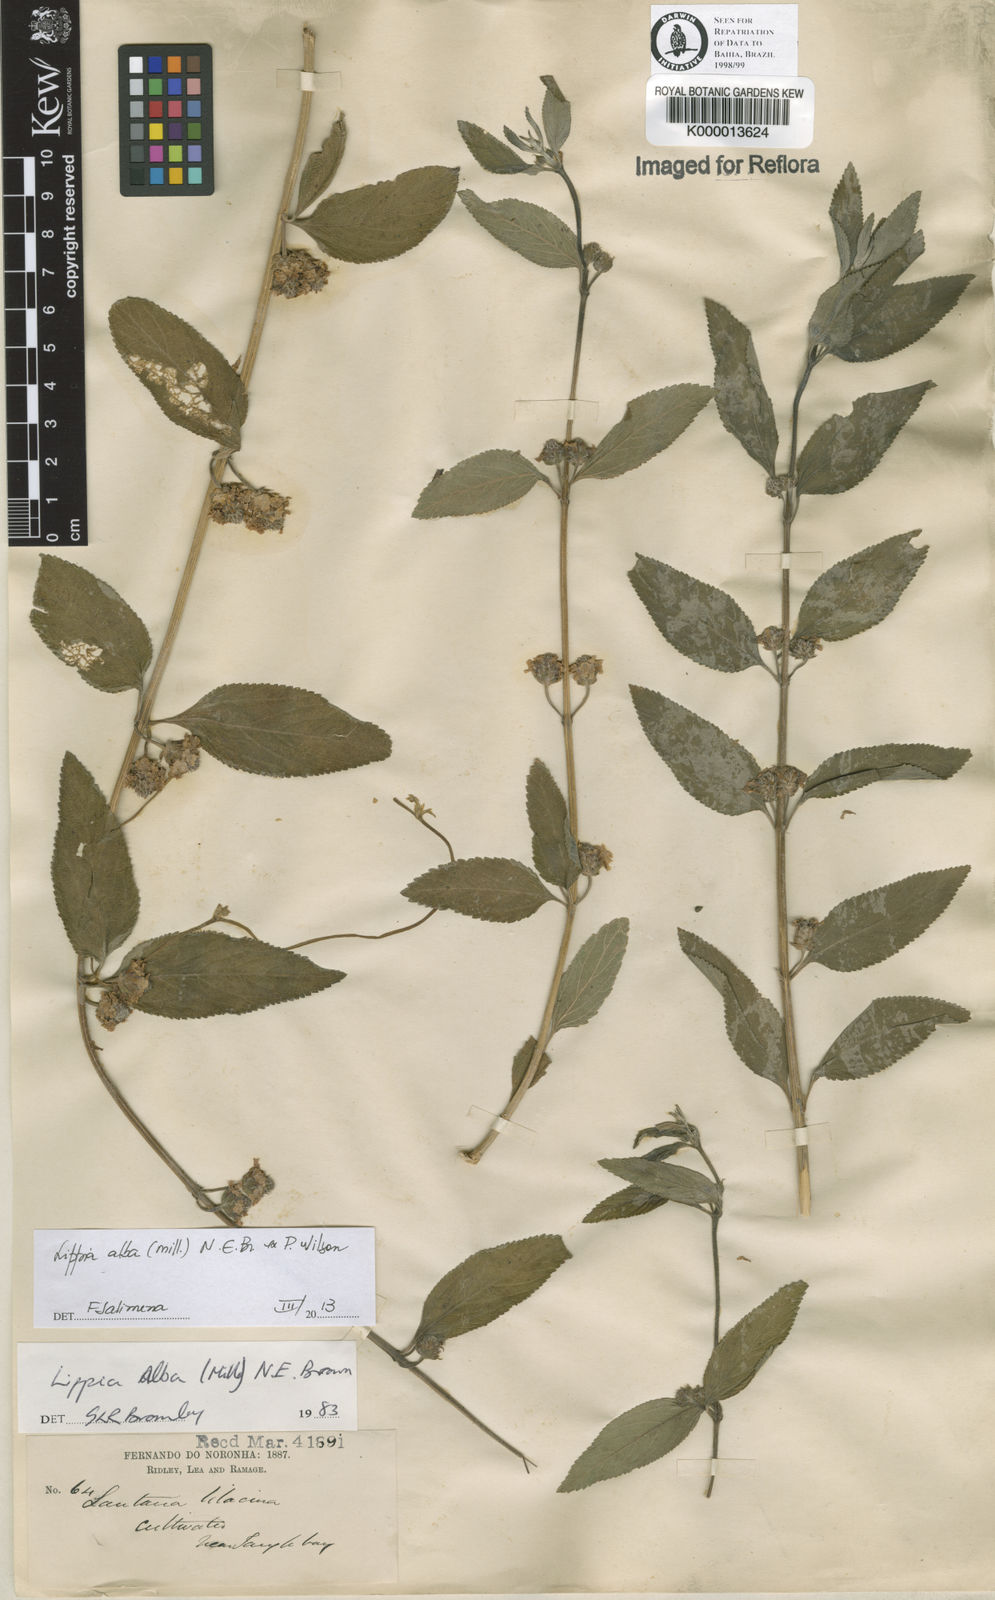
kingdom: Plantae
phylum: Tracheophyta
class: Magnoliopsida
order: Lamiales
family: Verbenaceae
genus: Lippia
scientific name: Lippia
